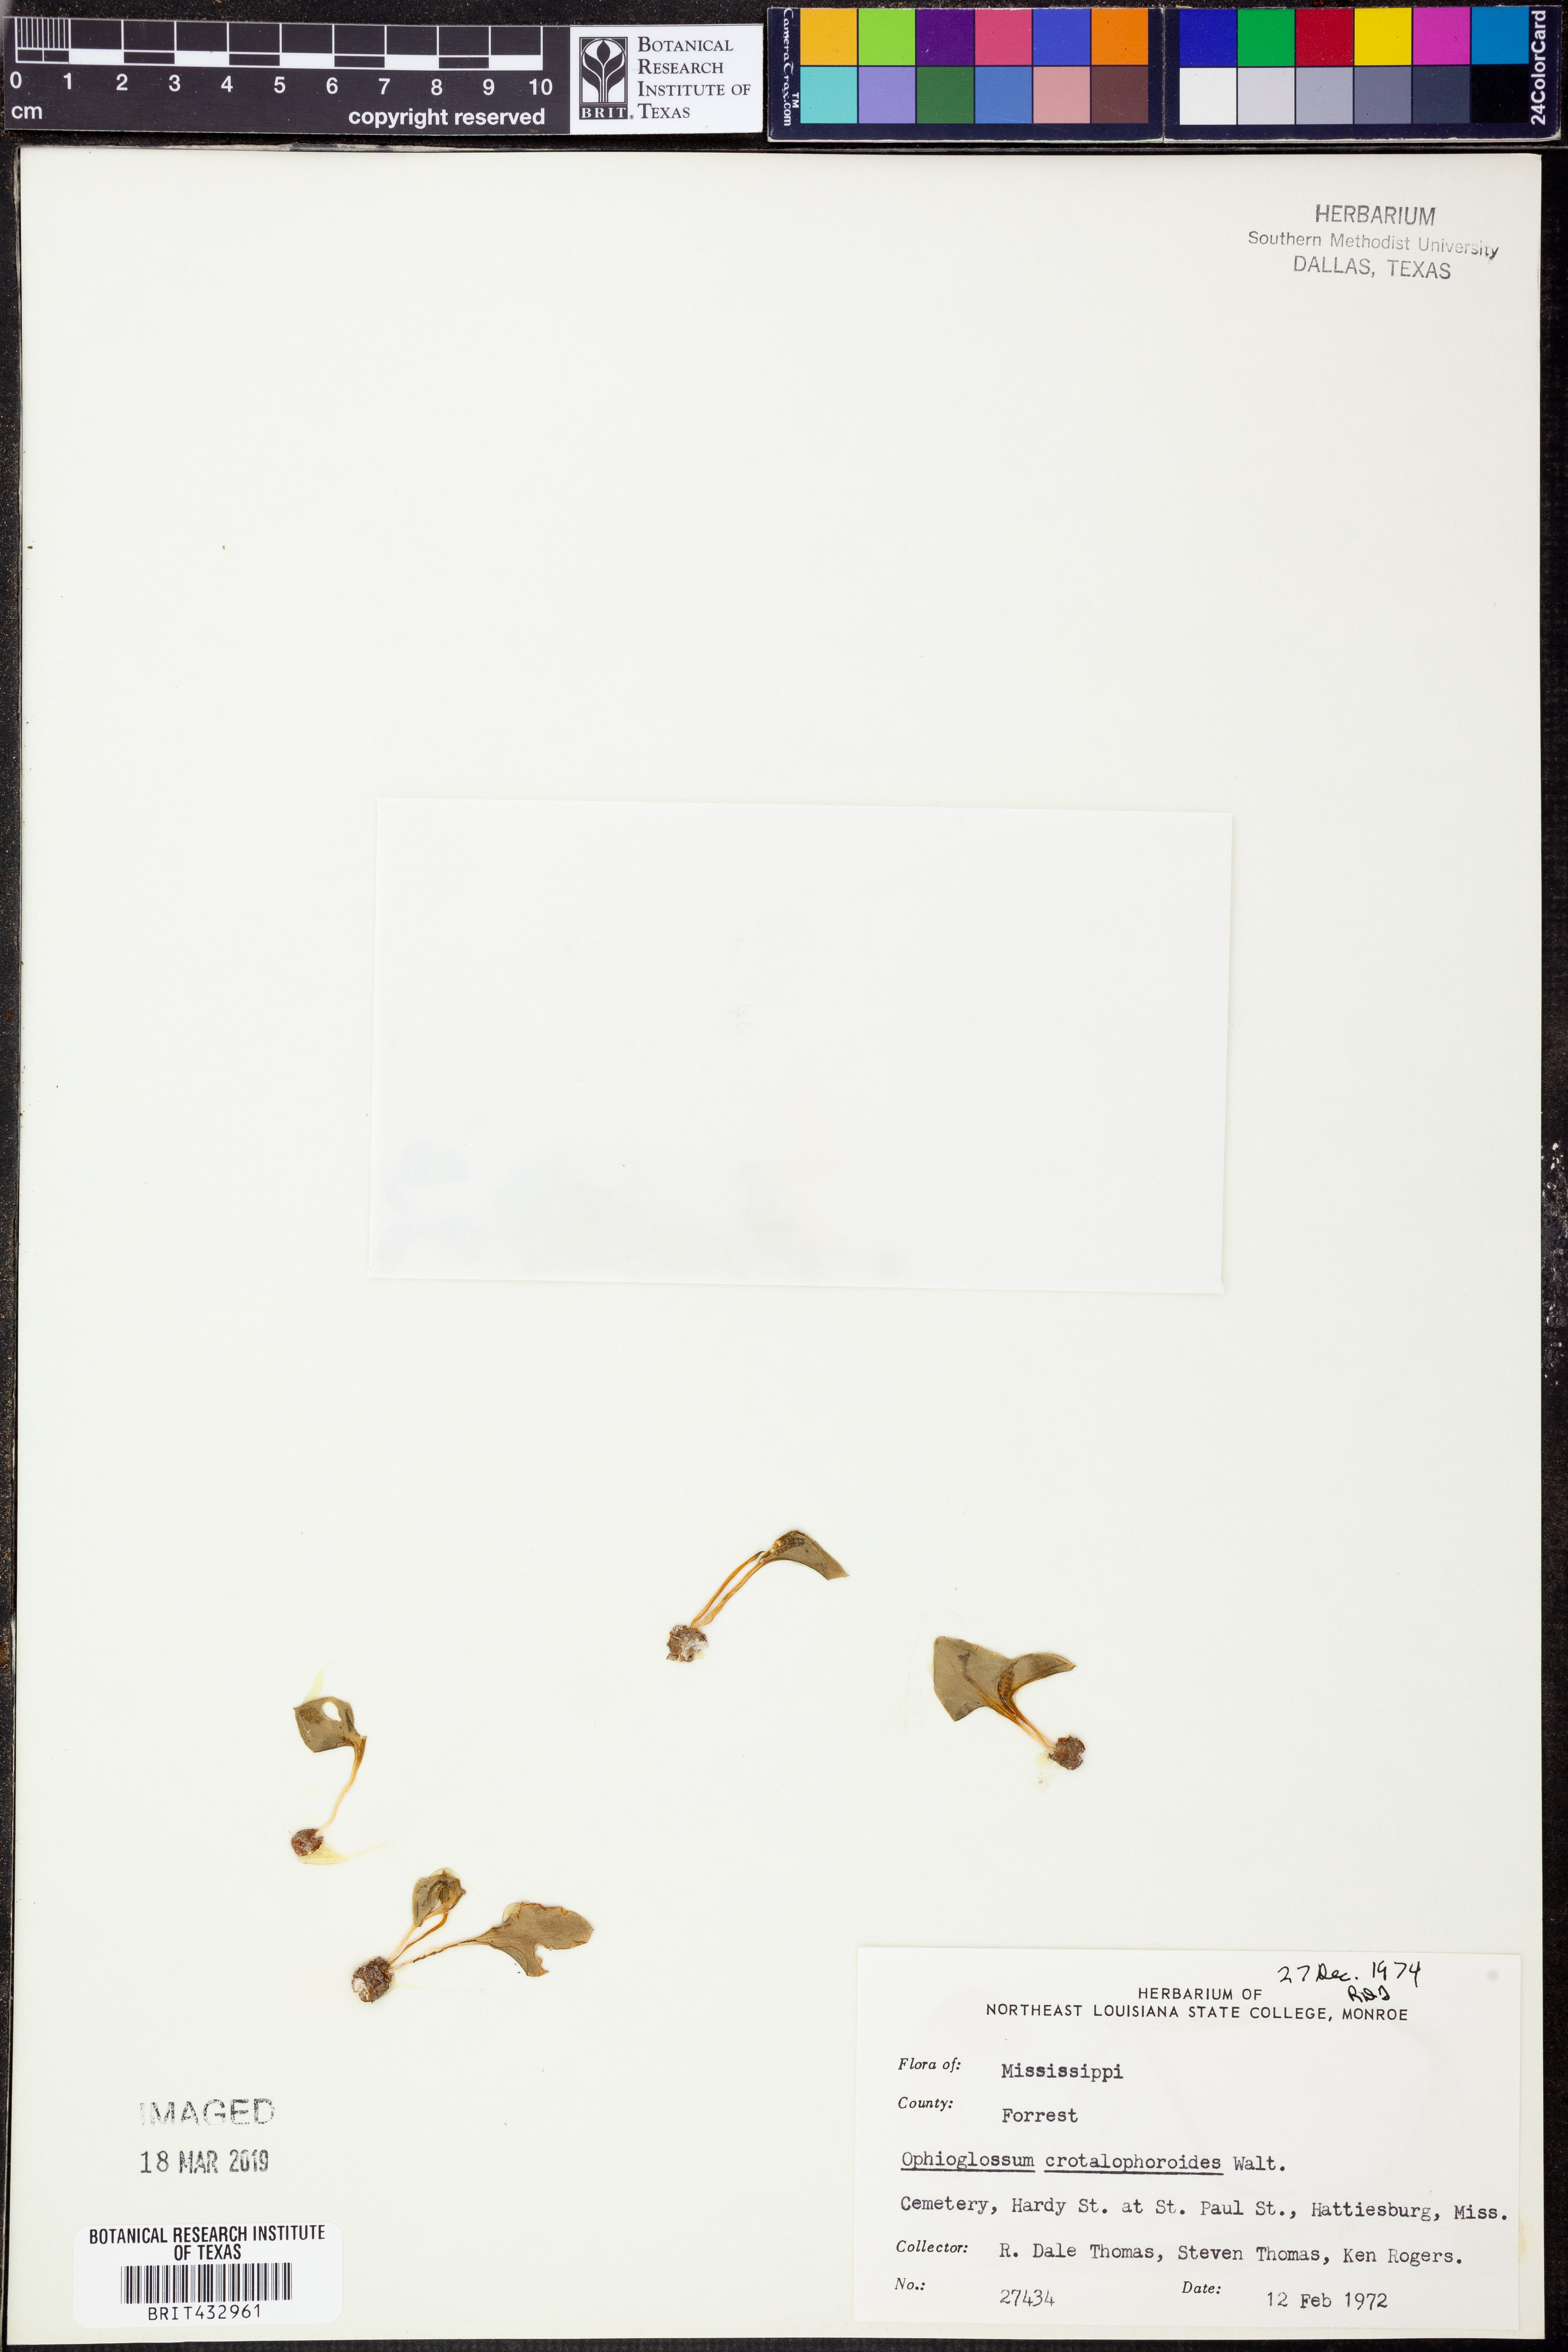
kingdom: Plantae
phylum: Tracheophyta
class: Polypodiopsida
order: Ophioglossales
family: Ophioglossaceae
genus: Ophioglossum
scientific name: Ophioglossum crotalophoroides
